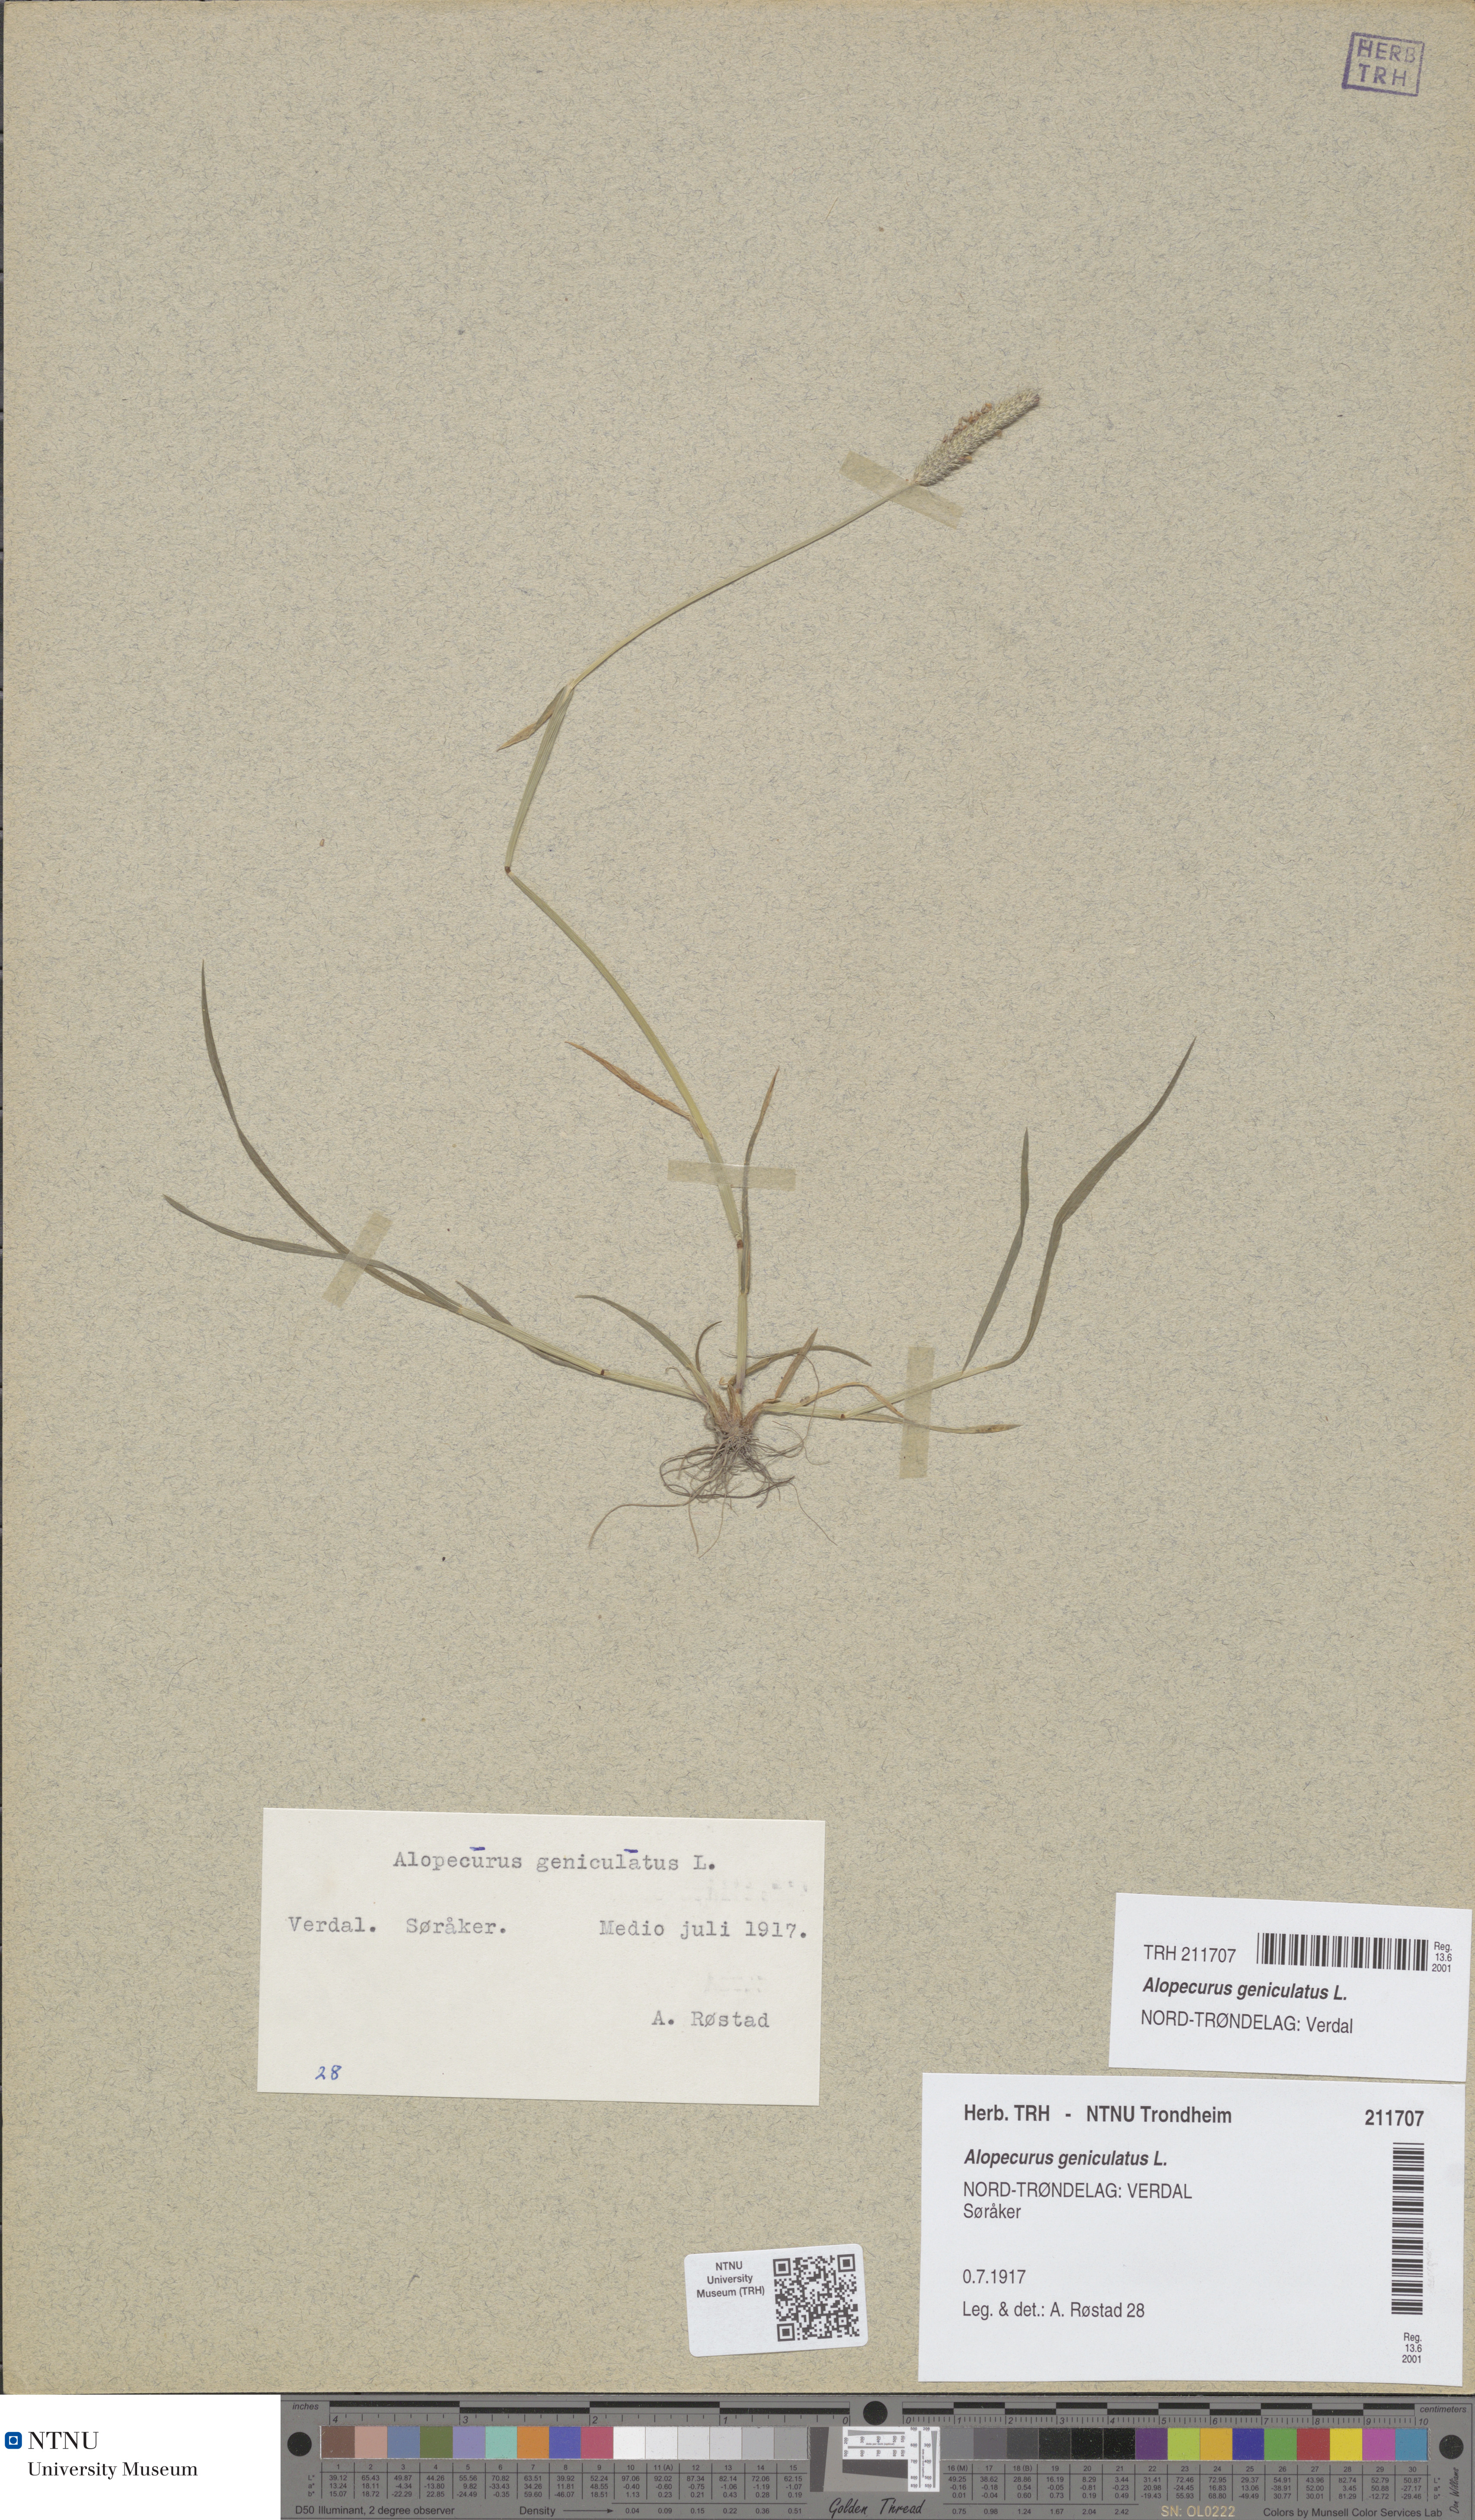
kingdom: Plantae
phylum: Tracheophyta
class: Liliopsida
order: Poales
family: Poaceae
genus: Alopecurus
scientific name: Alopecurus geniculatus
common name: Water foxtail
